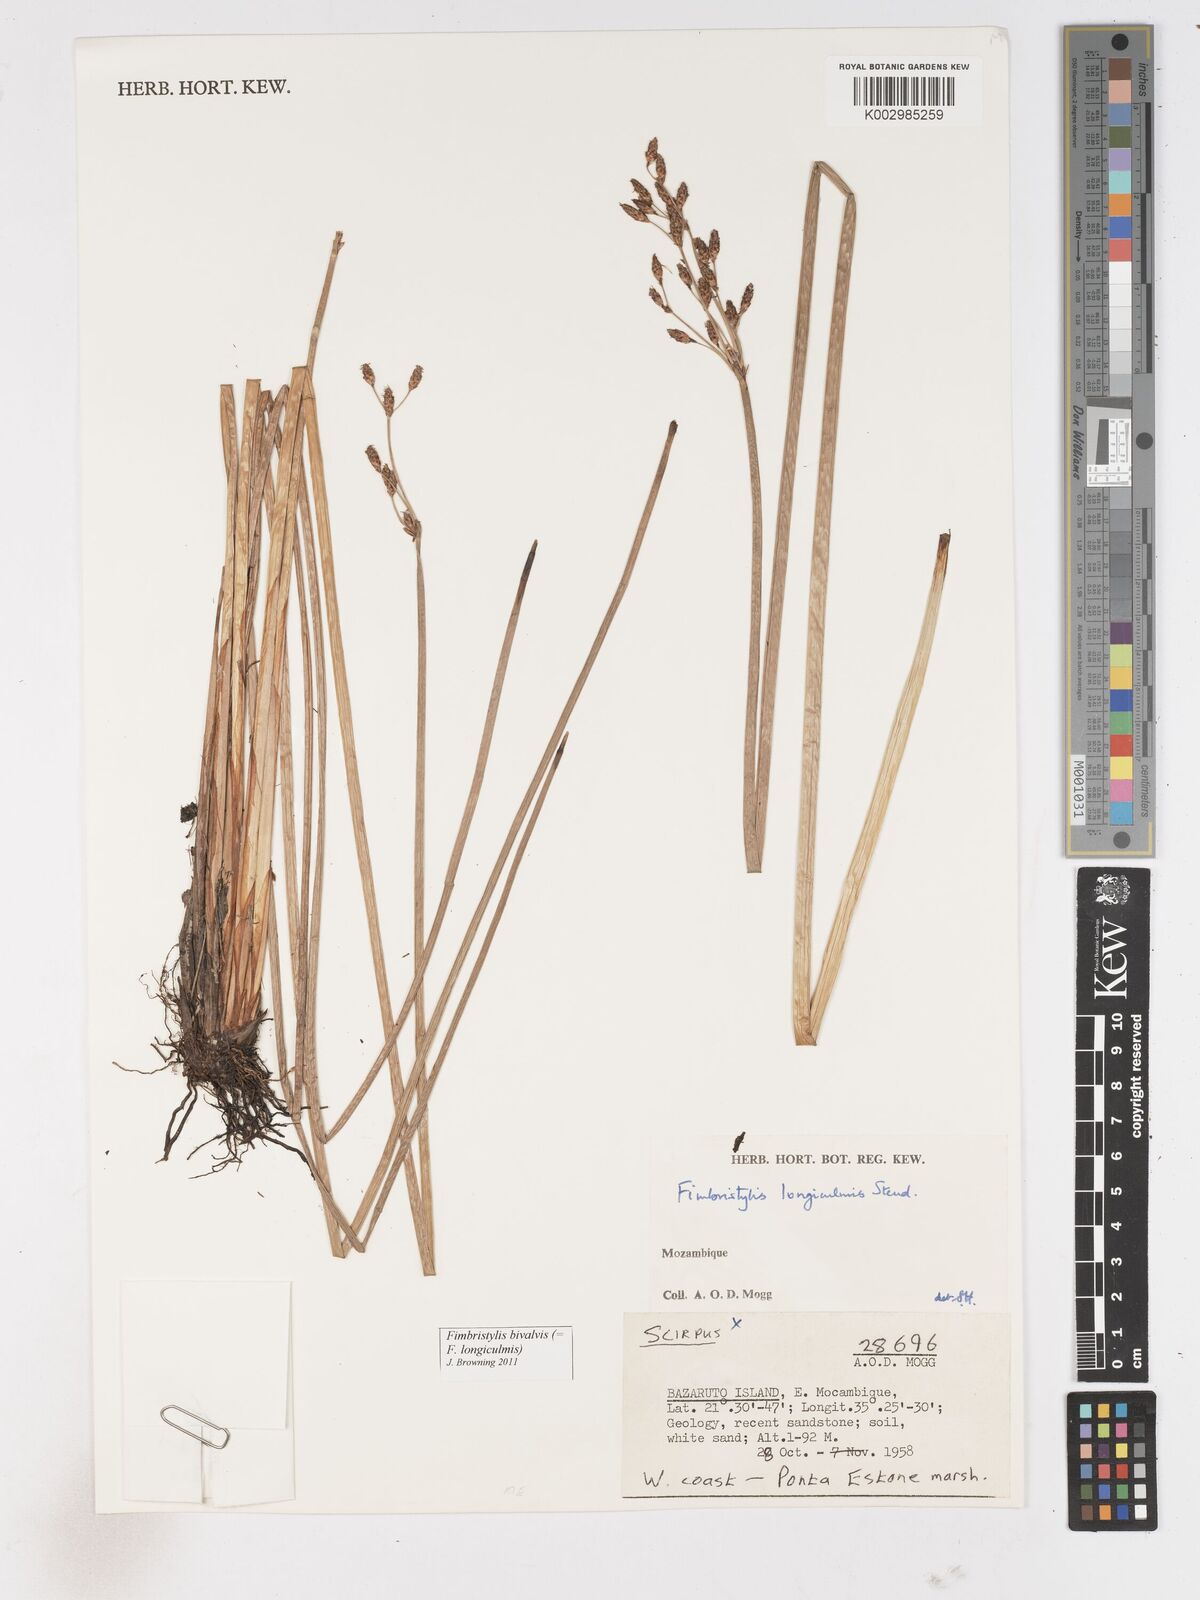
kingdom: Plantae
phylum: Tracheophyta
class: Liliopsida
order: Poales
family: Cyperaceae
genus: Fimbristylis
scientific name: Fimbristylis bivalvis
